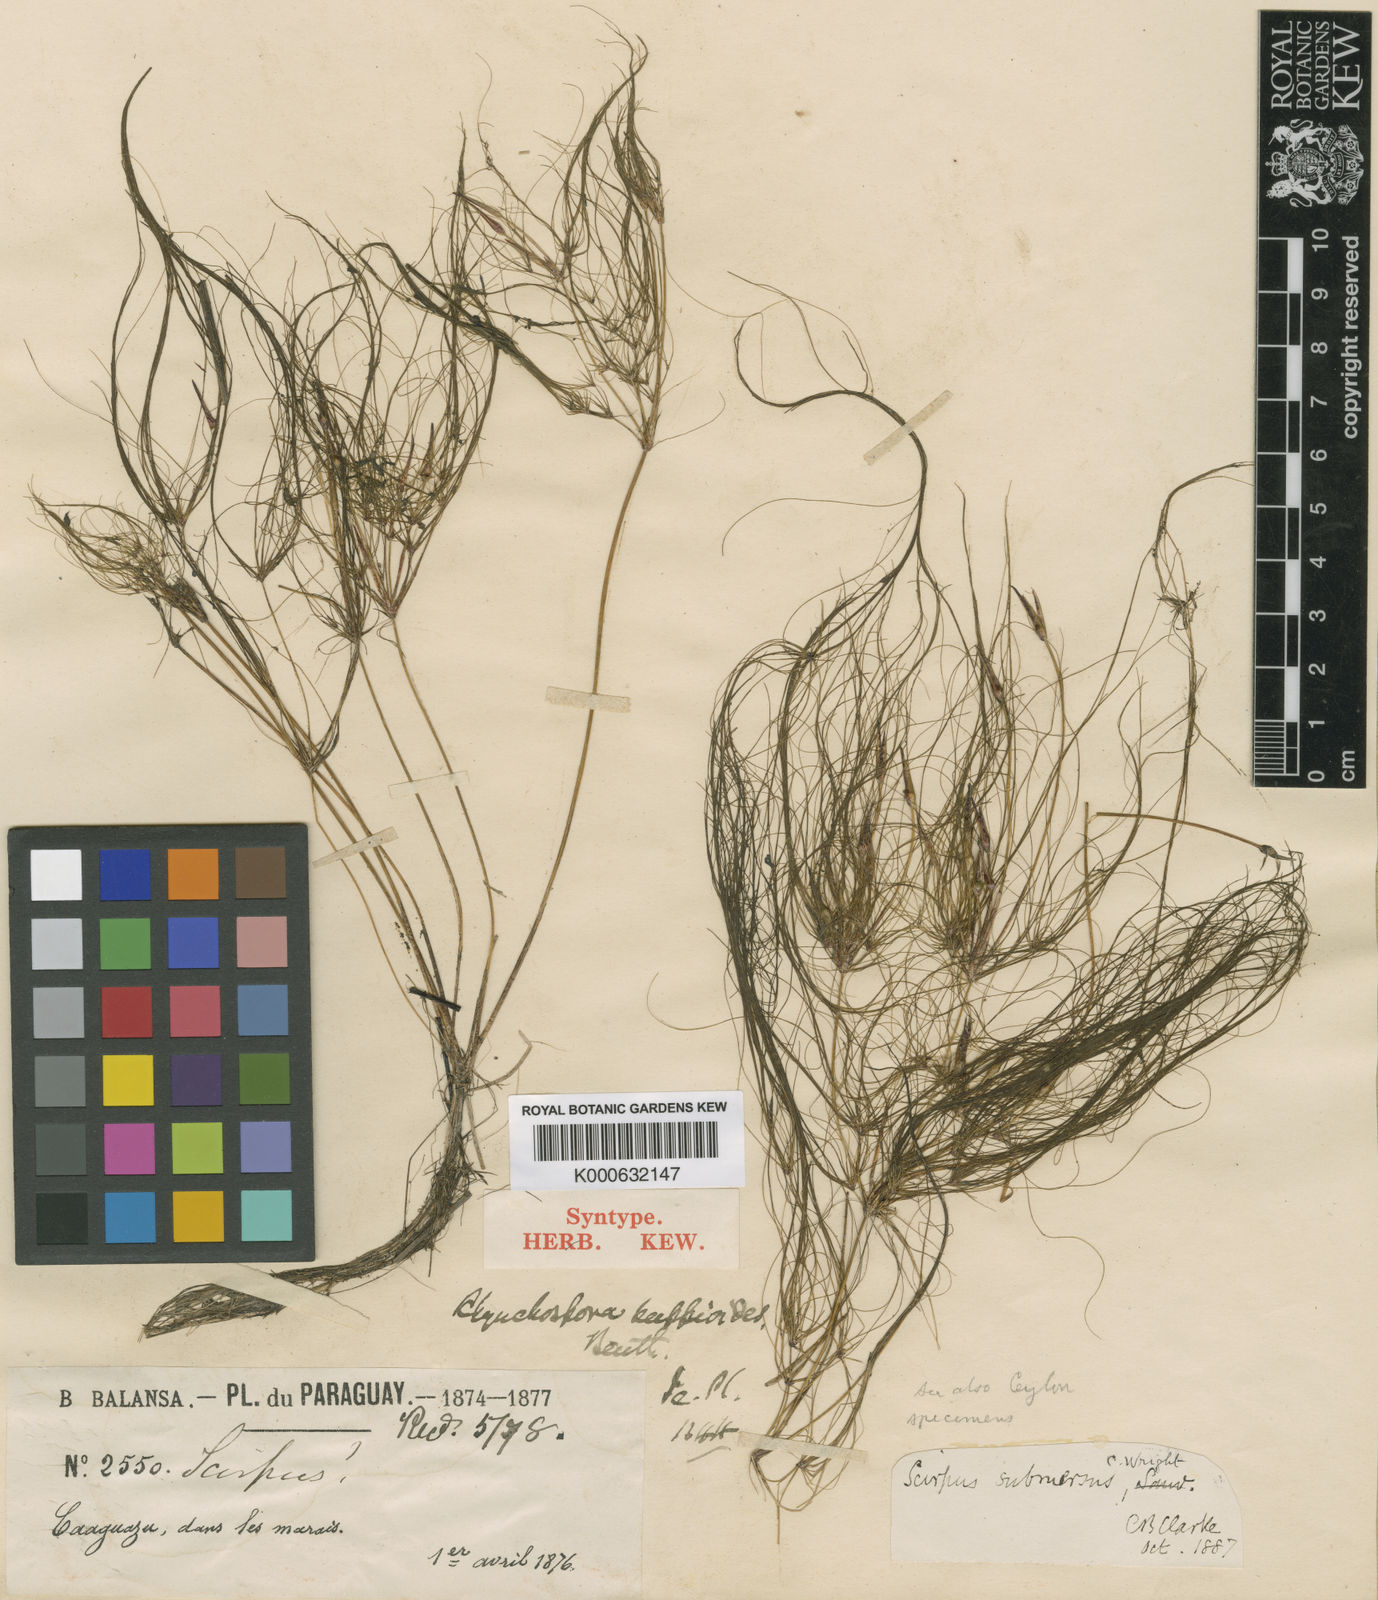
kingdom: Plantae
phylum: Tracheophyta
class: Liliopsida
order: Poales
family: Cyperaceae
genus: Eleocharis
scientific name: Eleocharis confervoides
